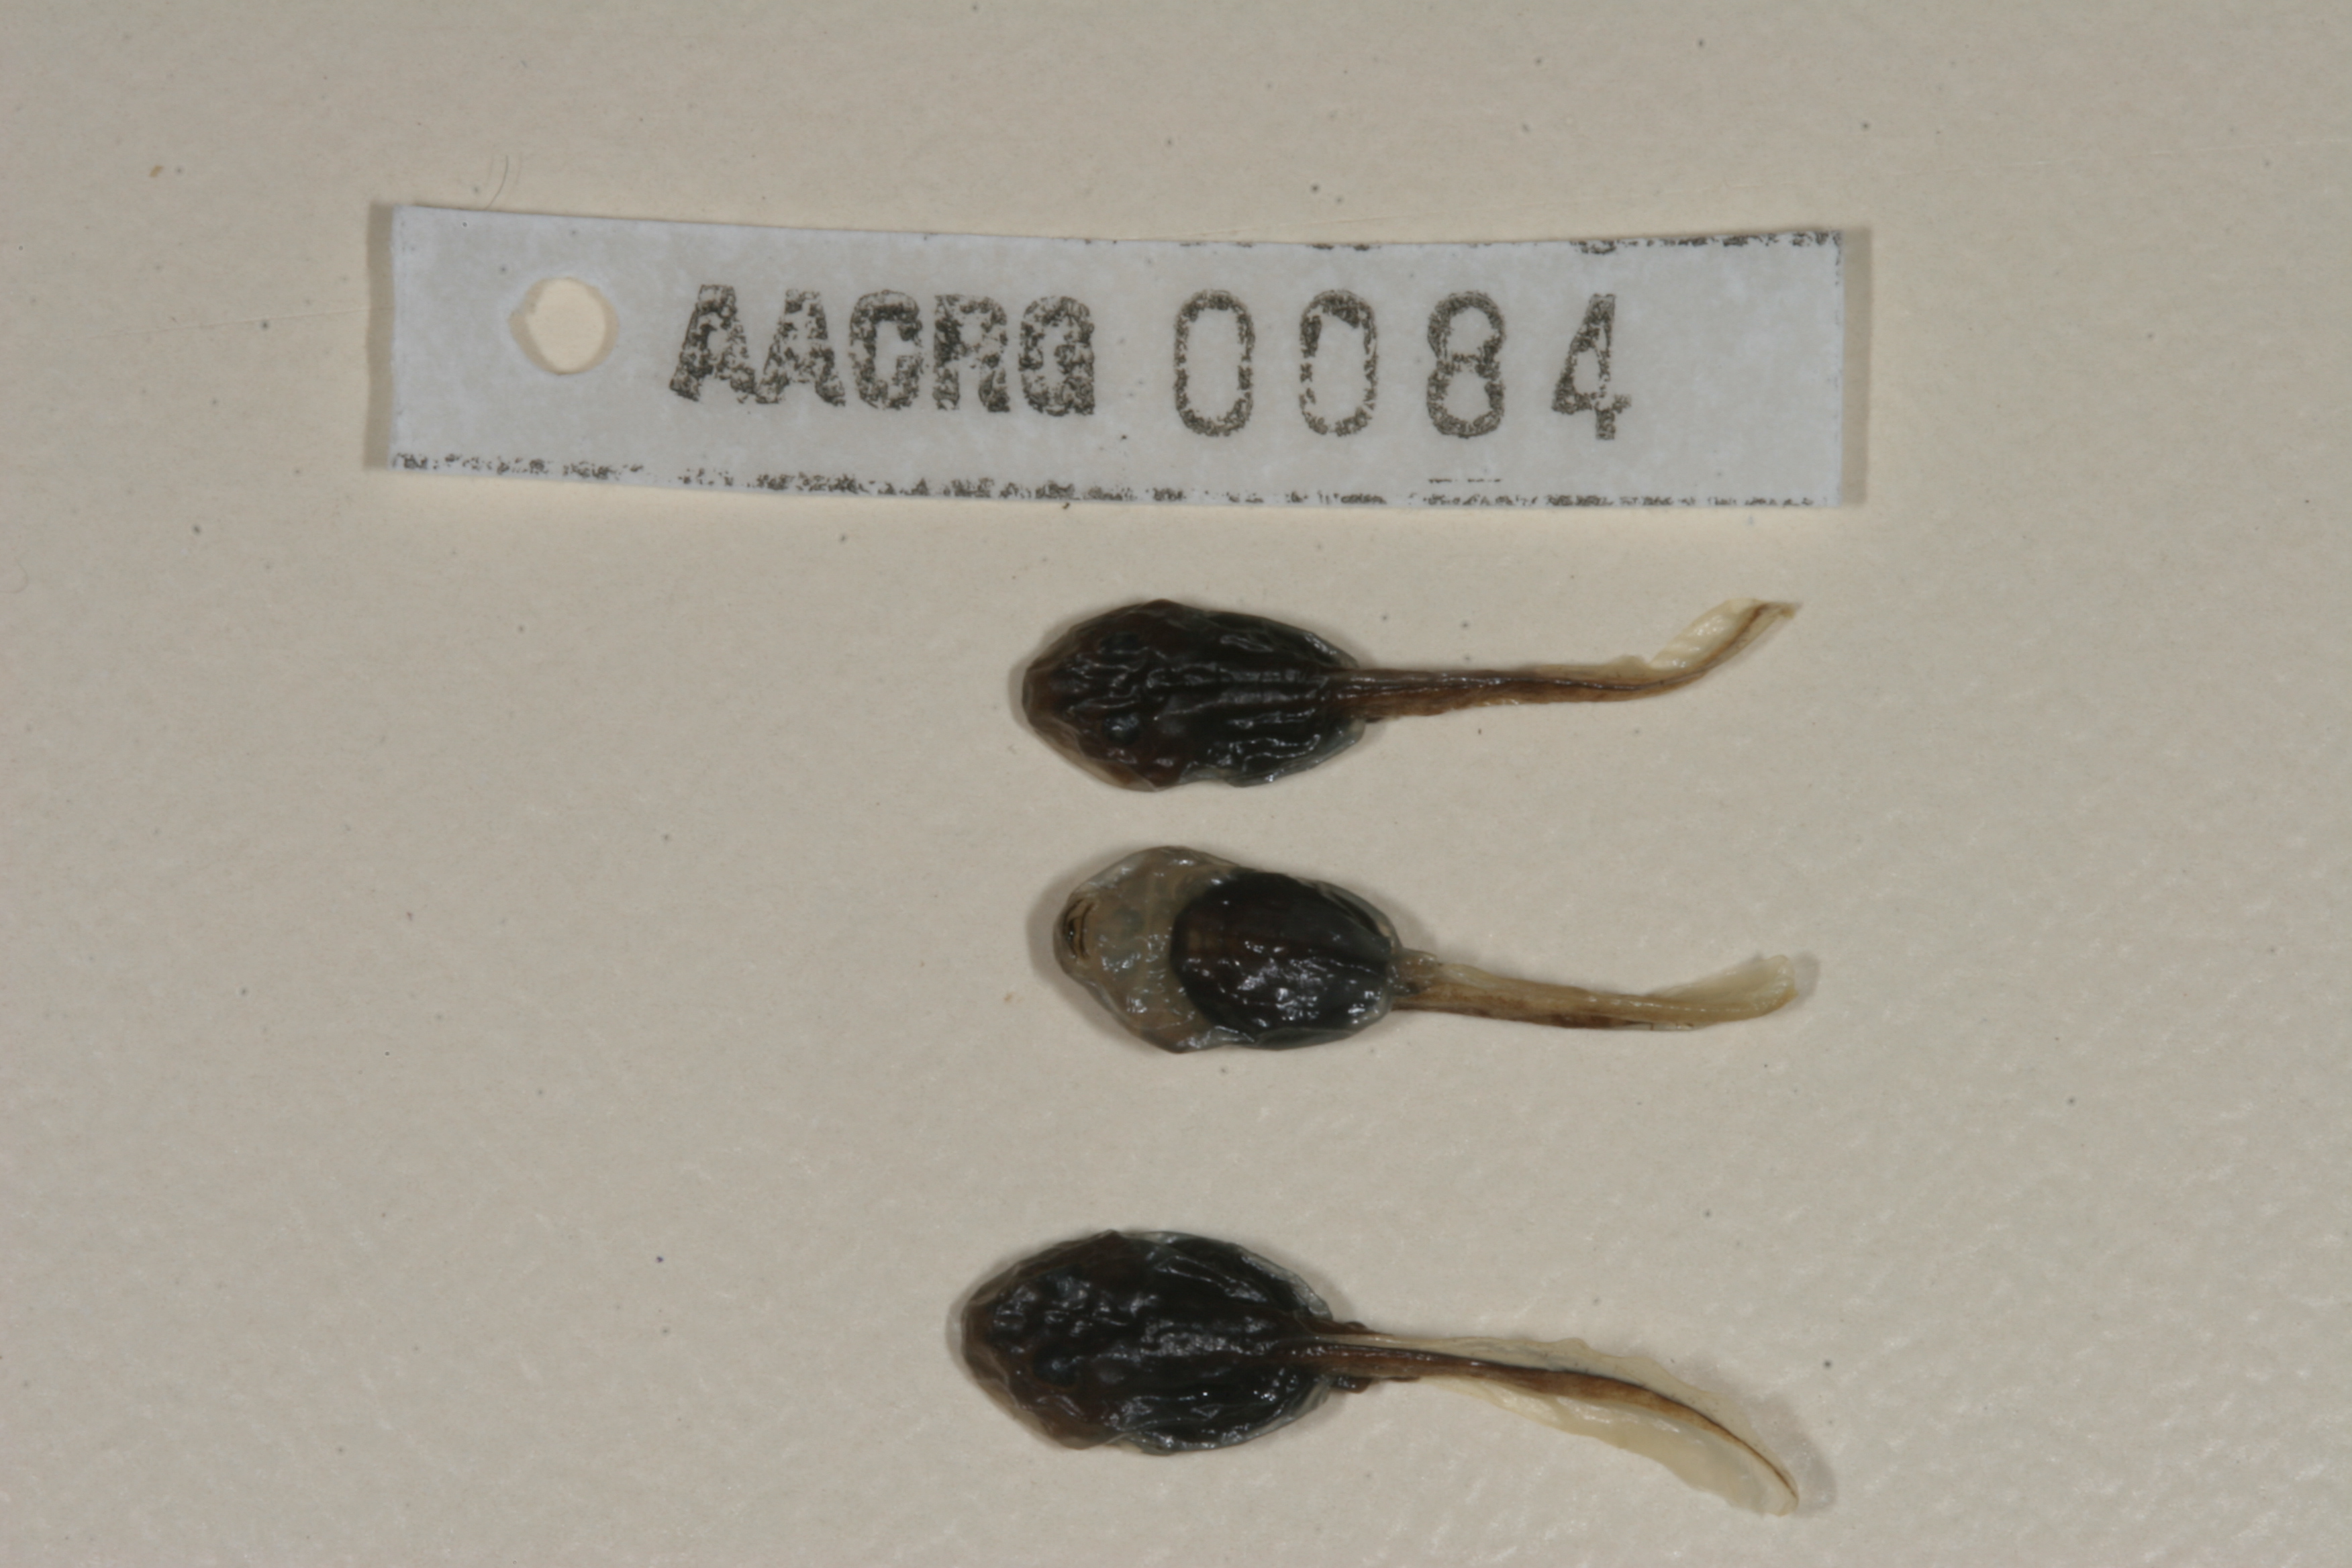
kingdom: Animalia
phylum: Chordata
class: Amphibia
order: Anura
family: Bufonidae
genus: Vandijkophrynus
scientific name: Vandijkophrynus robinsoni
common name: Paradise toad
